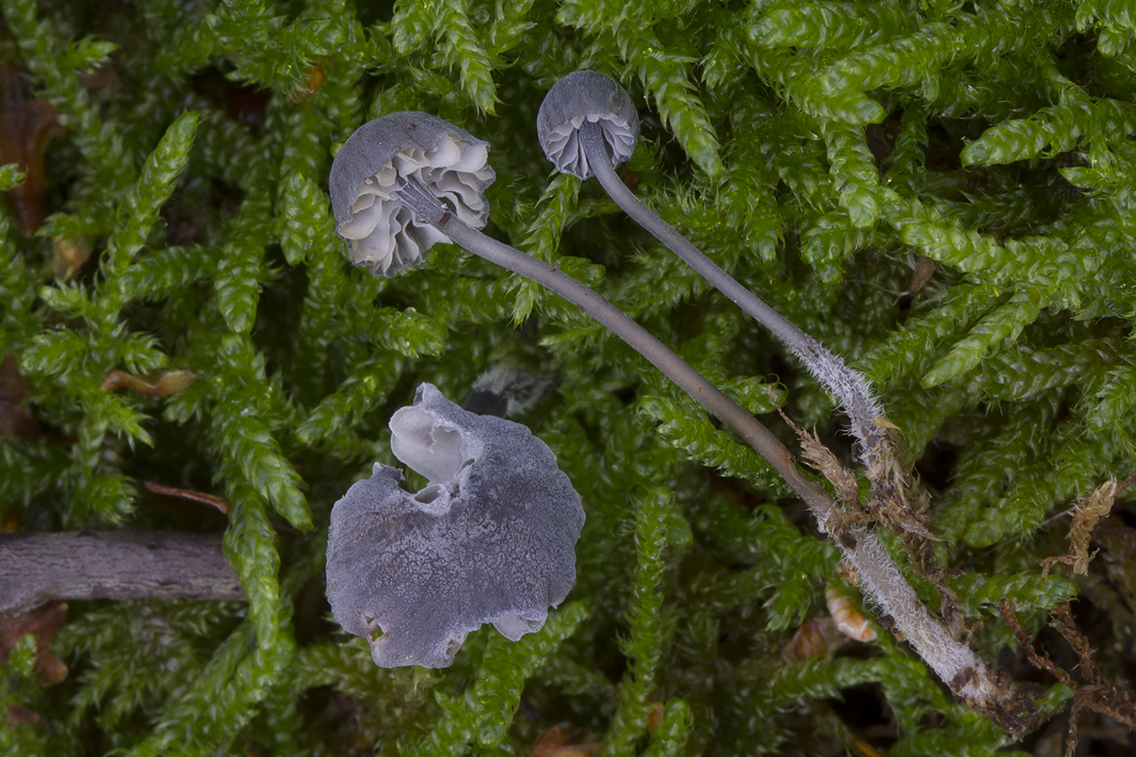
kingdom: Fungi
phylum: Basidiomycota
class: Agaricomycetes
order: Agaricales
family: Mycenaceae
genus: Mycena
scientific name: Mycena pseudocorticola
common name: gråblå bark-huesvamp
